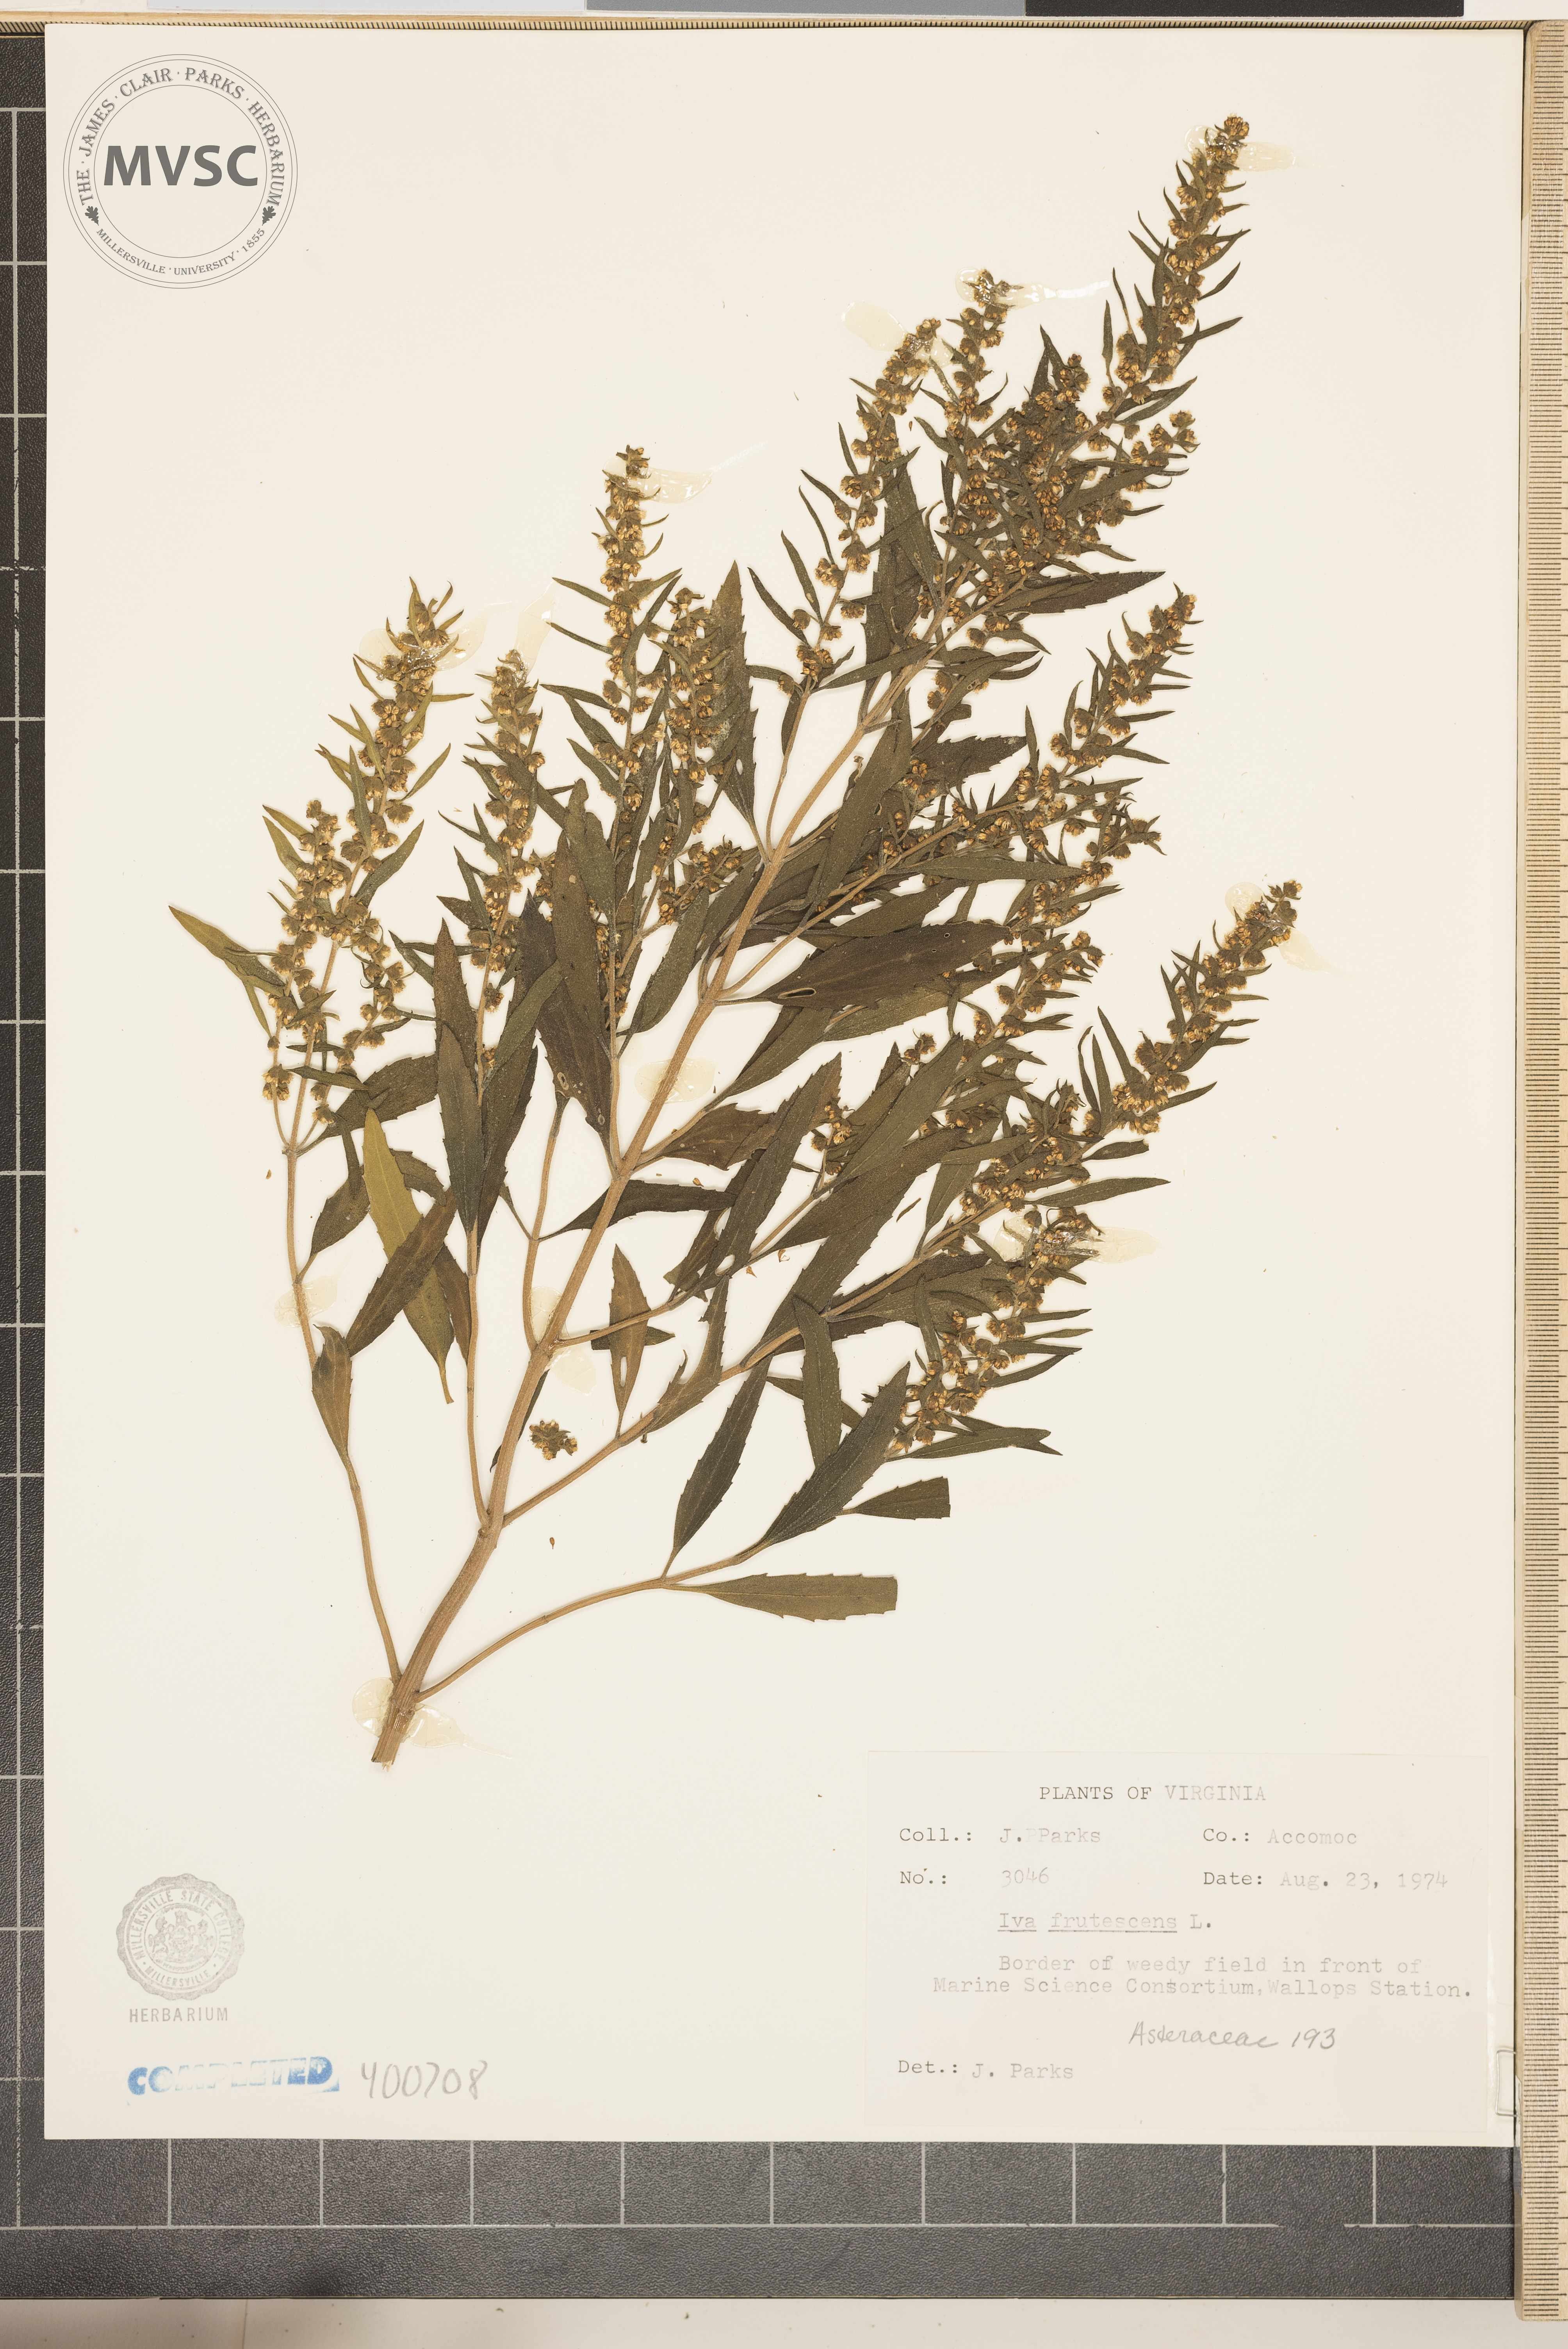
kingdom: Plantae
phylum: Tracheophyta
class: Magnoliopsida
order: Asterales
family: Asteraceae
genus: Iva
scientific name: Iva frutescens
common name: Big-leaved marsh-elder
